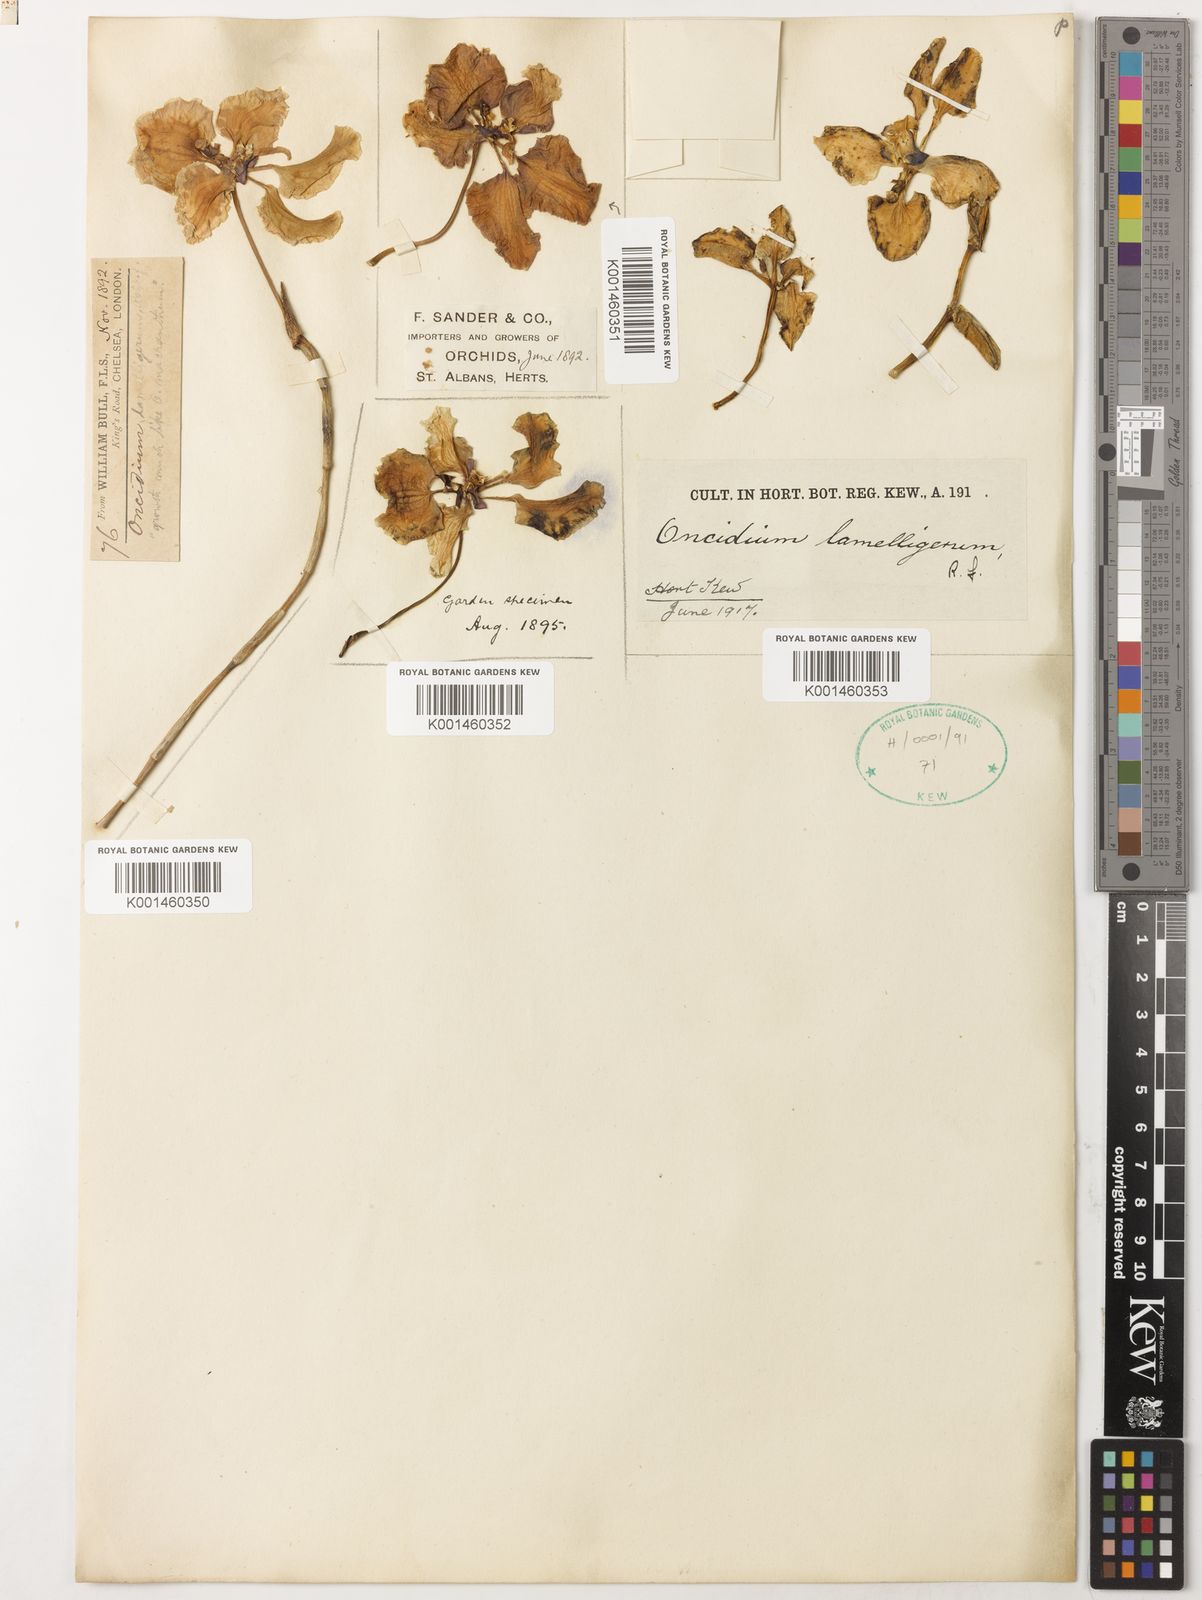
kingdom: Plantae
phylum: Tracheophyta
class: Liliopsida
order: Asparagales
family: Orchidaceae
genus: Cyrtochilum
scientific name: Cyrtochilum lamelligerum
